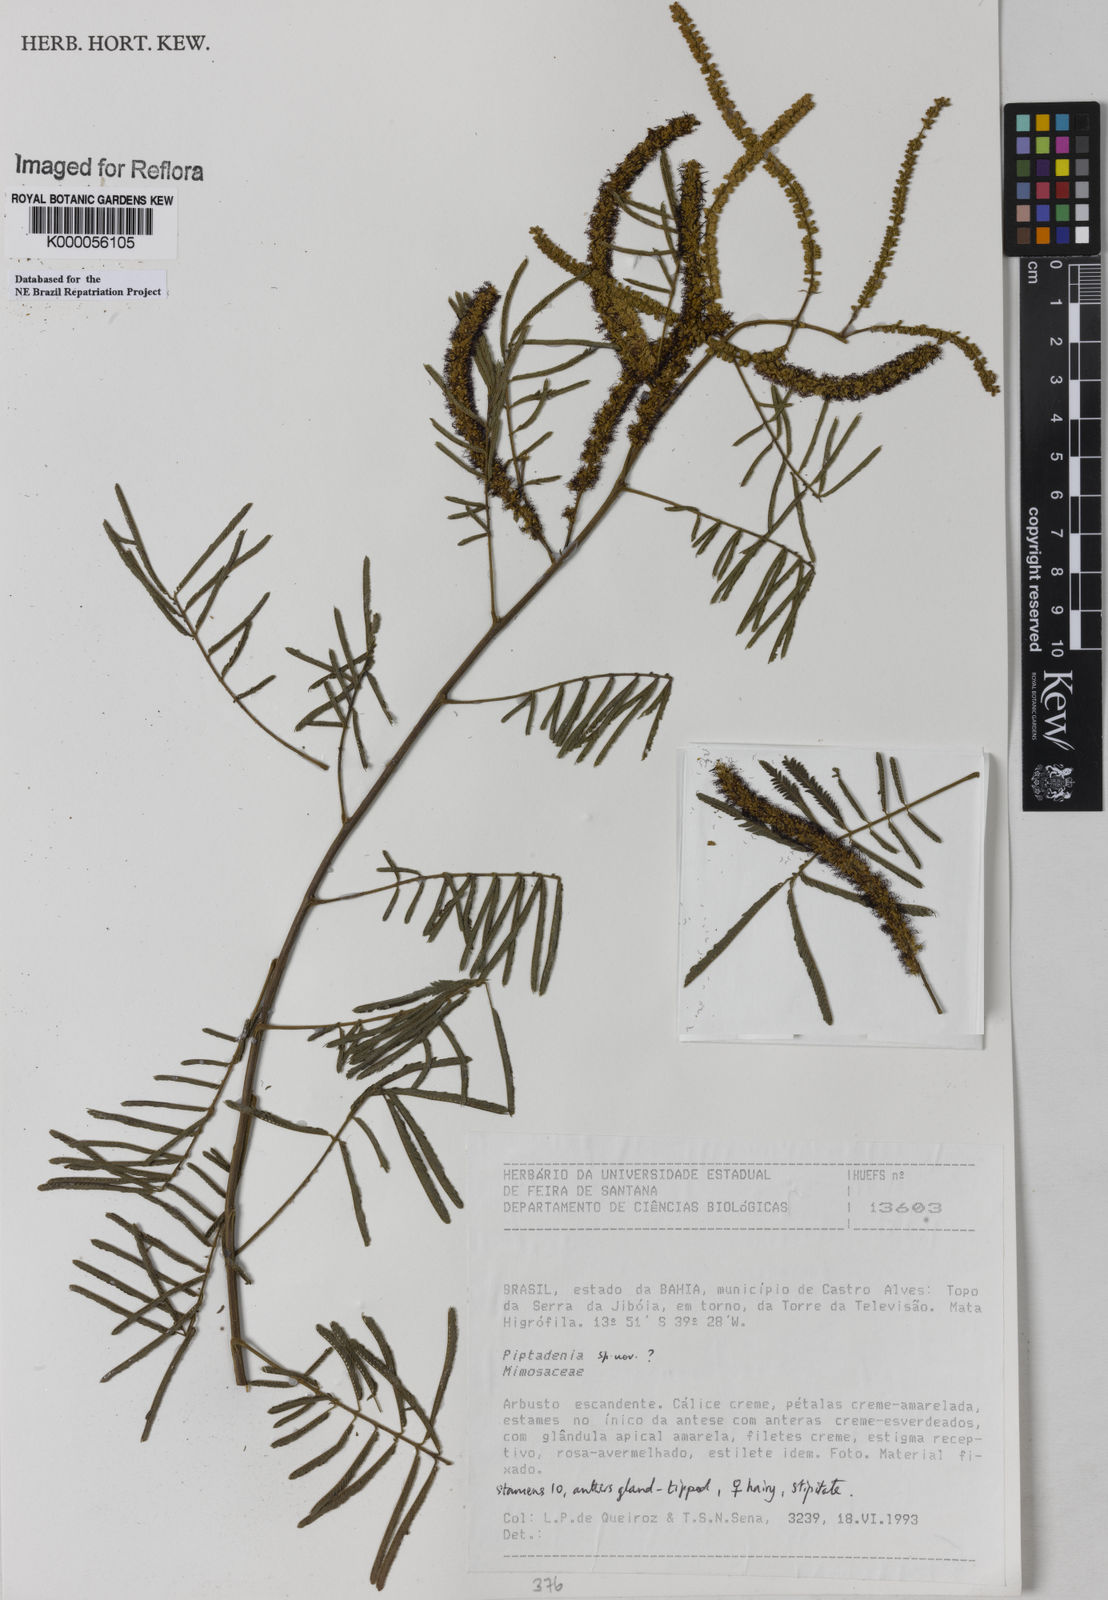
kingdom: Plantae
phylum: Tracheophyta
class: Magnoliopsida
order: Fabales
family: Fabaceae
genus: Piptadenia
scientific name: Piptadenia micracantha
